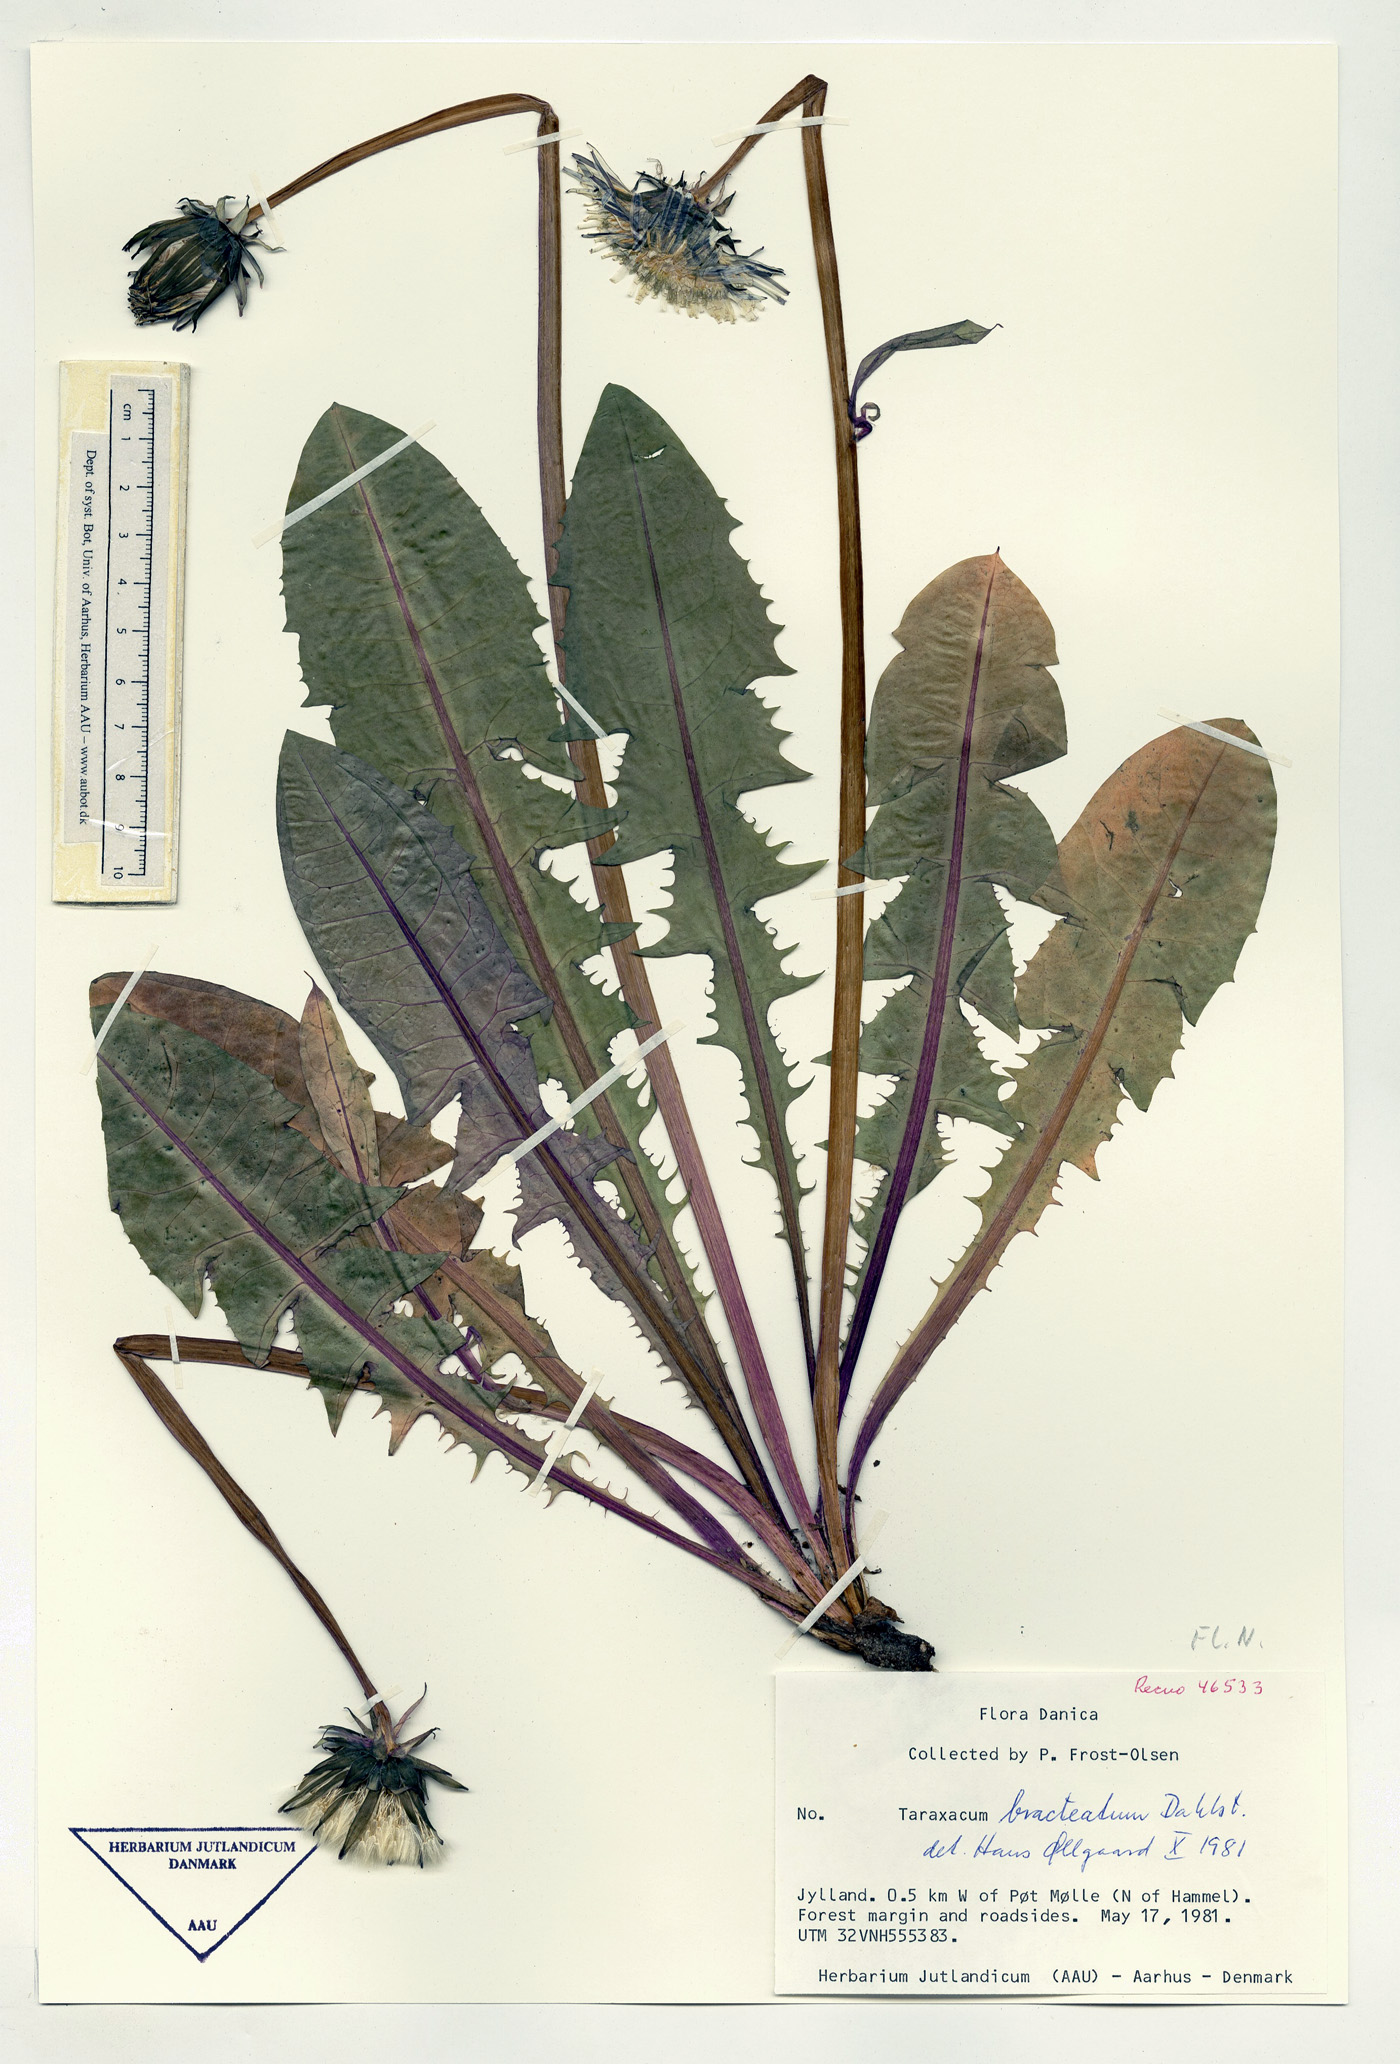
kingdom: Plantae
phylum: Tracheophyta
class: Magnoliopsida
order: Asterales
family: Asteraceae
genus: Taraxacum
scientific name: Taraxacum bracteatum
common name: Dark-green dandelion
